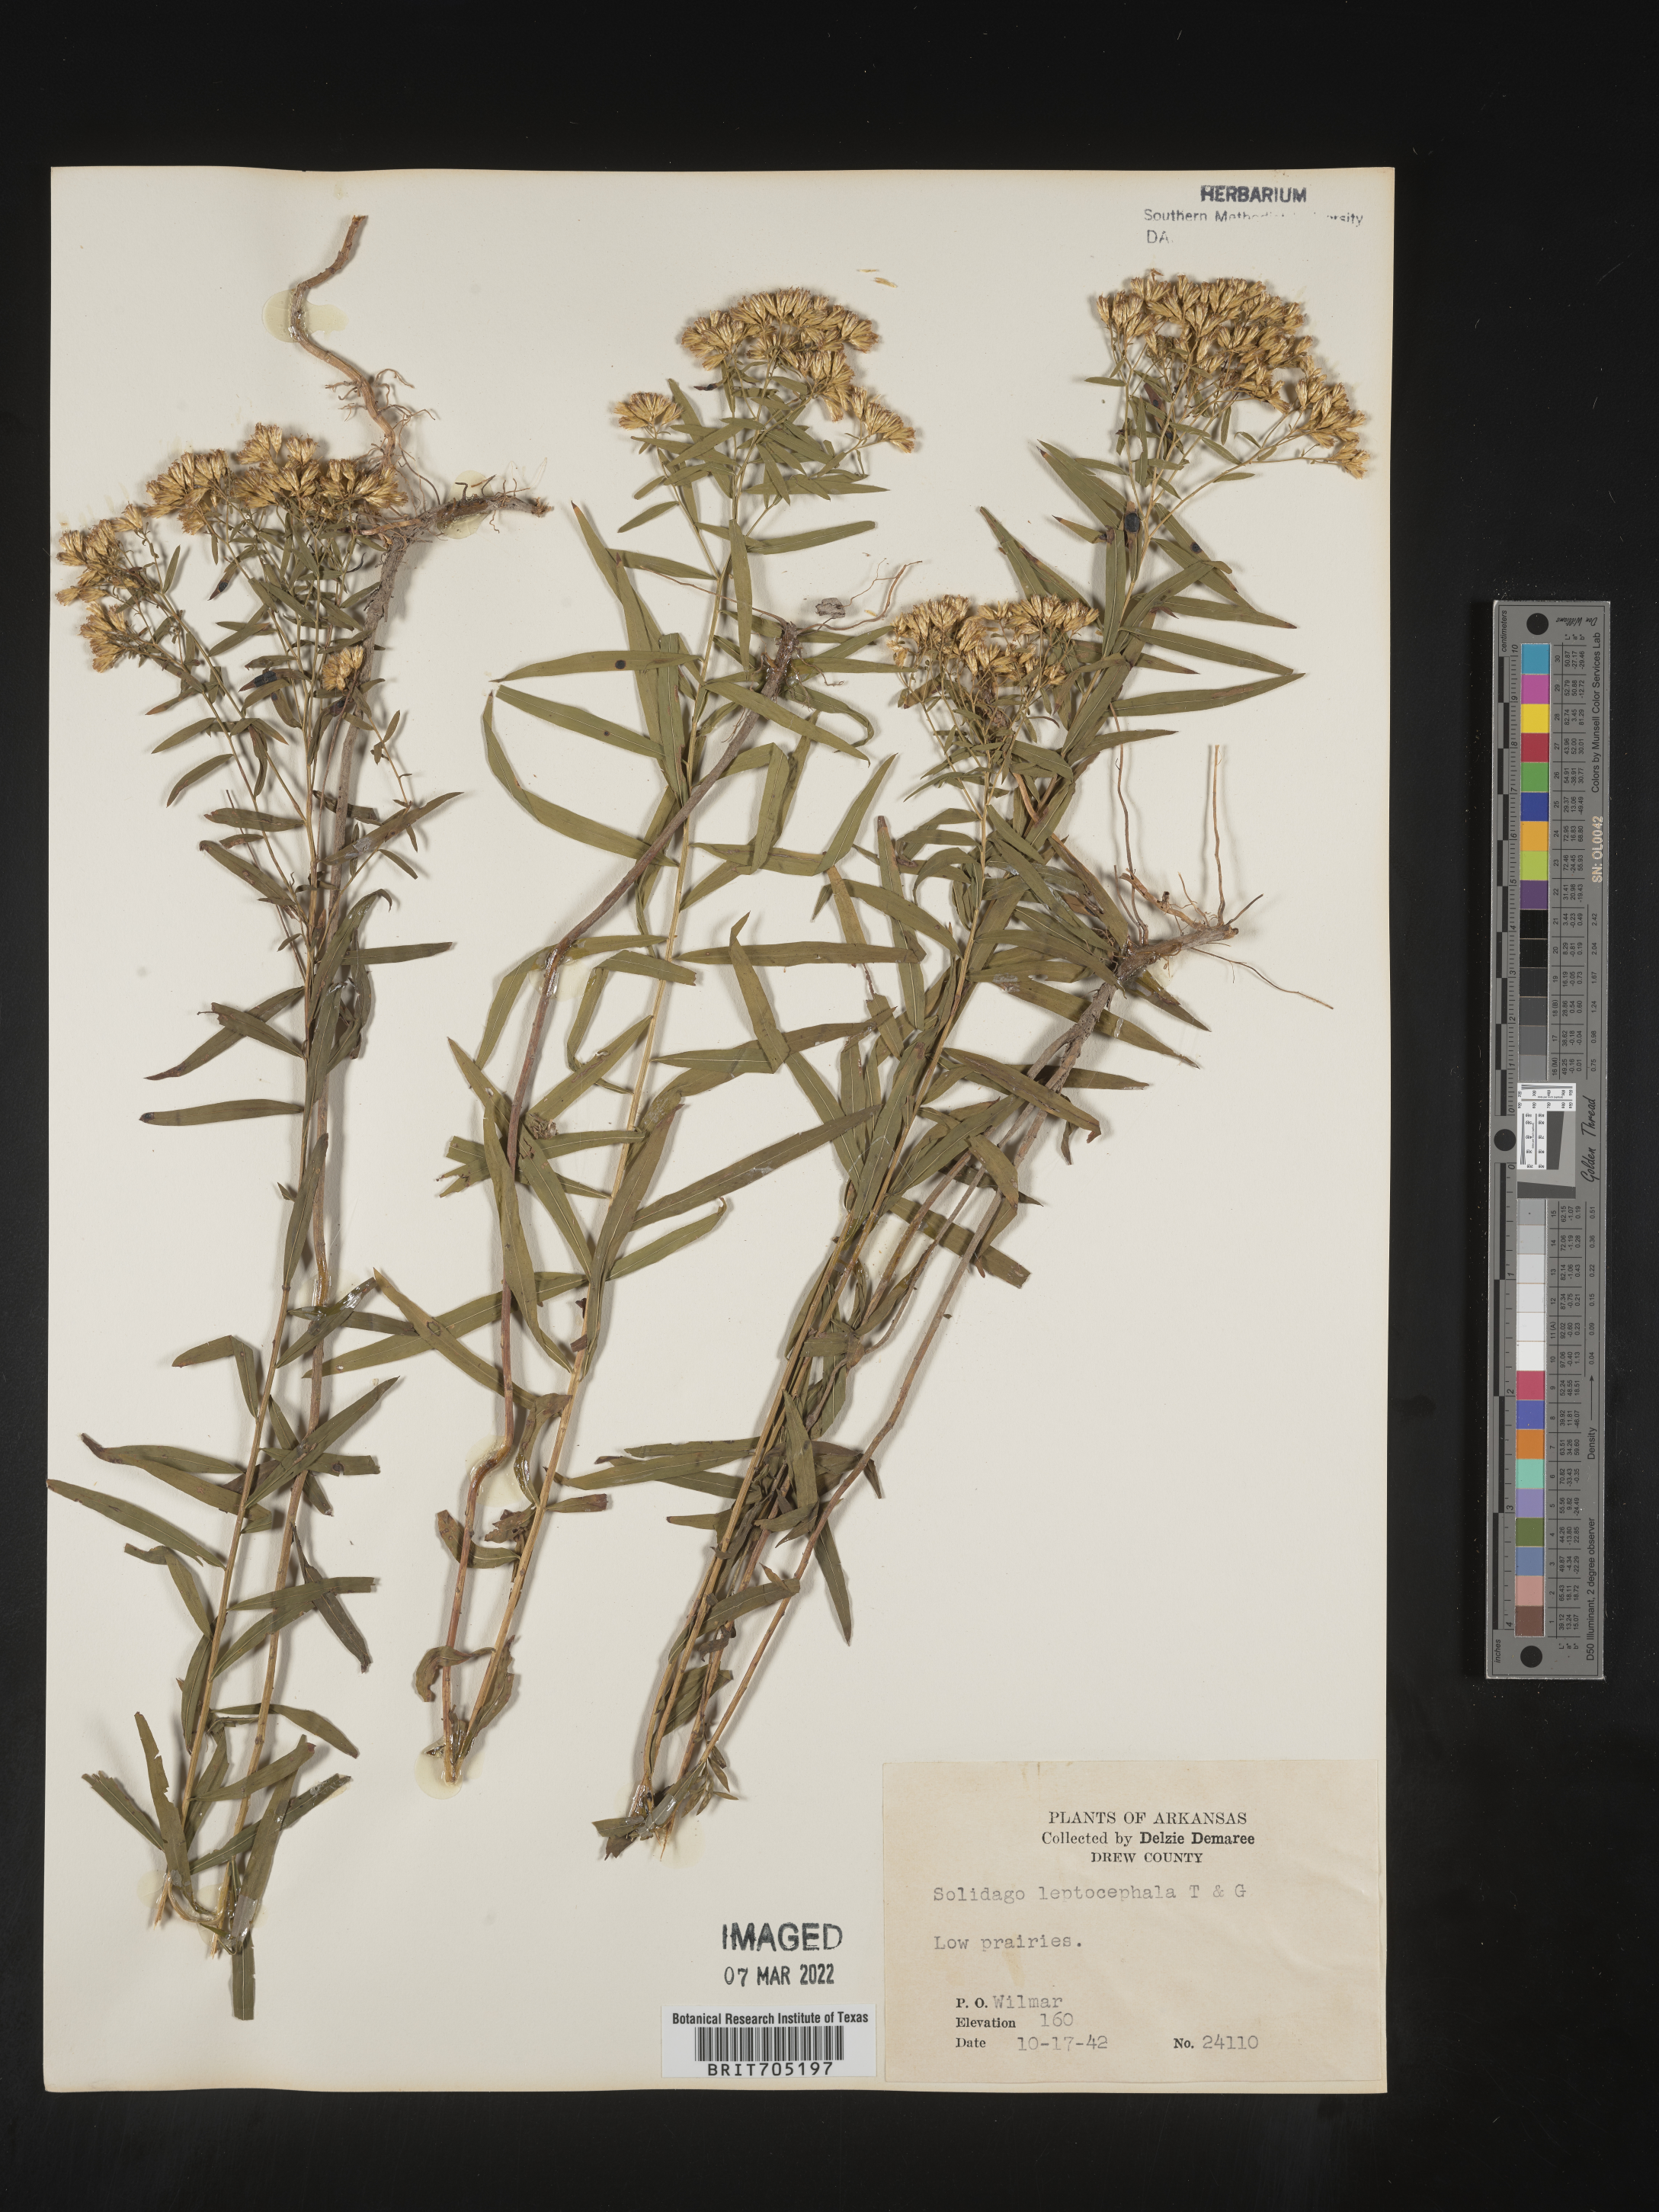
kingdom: Plantae
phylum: Tracheophyta
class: Magnoliopsida
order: Asterales
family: Asteraceae
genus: Euthamia
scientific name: Euthamia leptocephala
